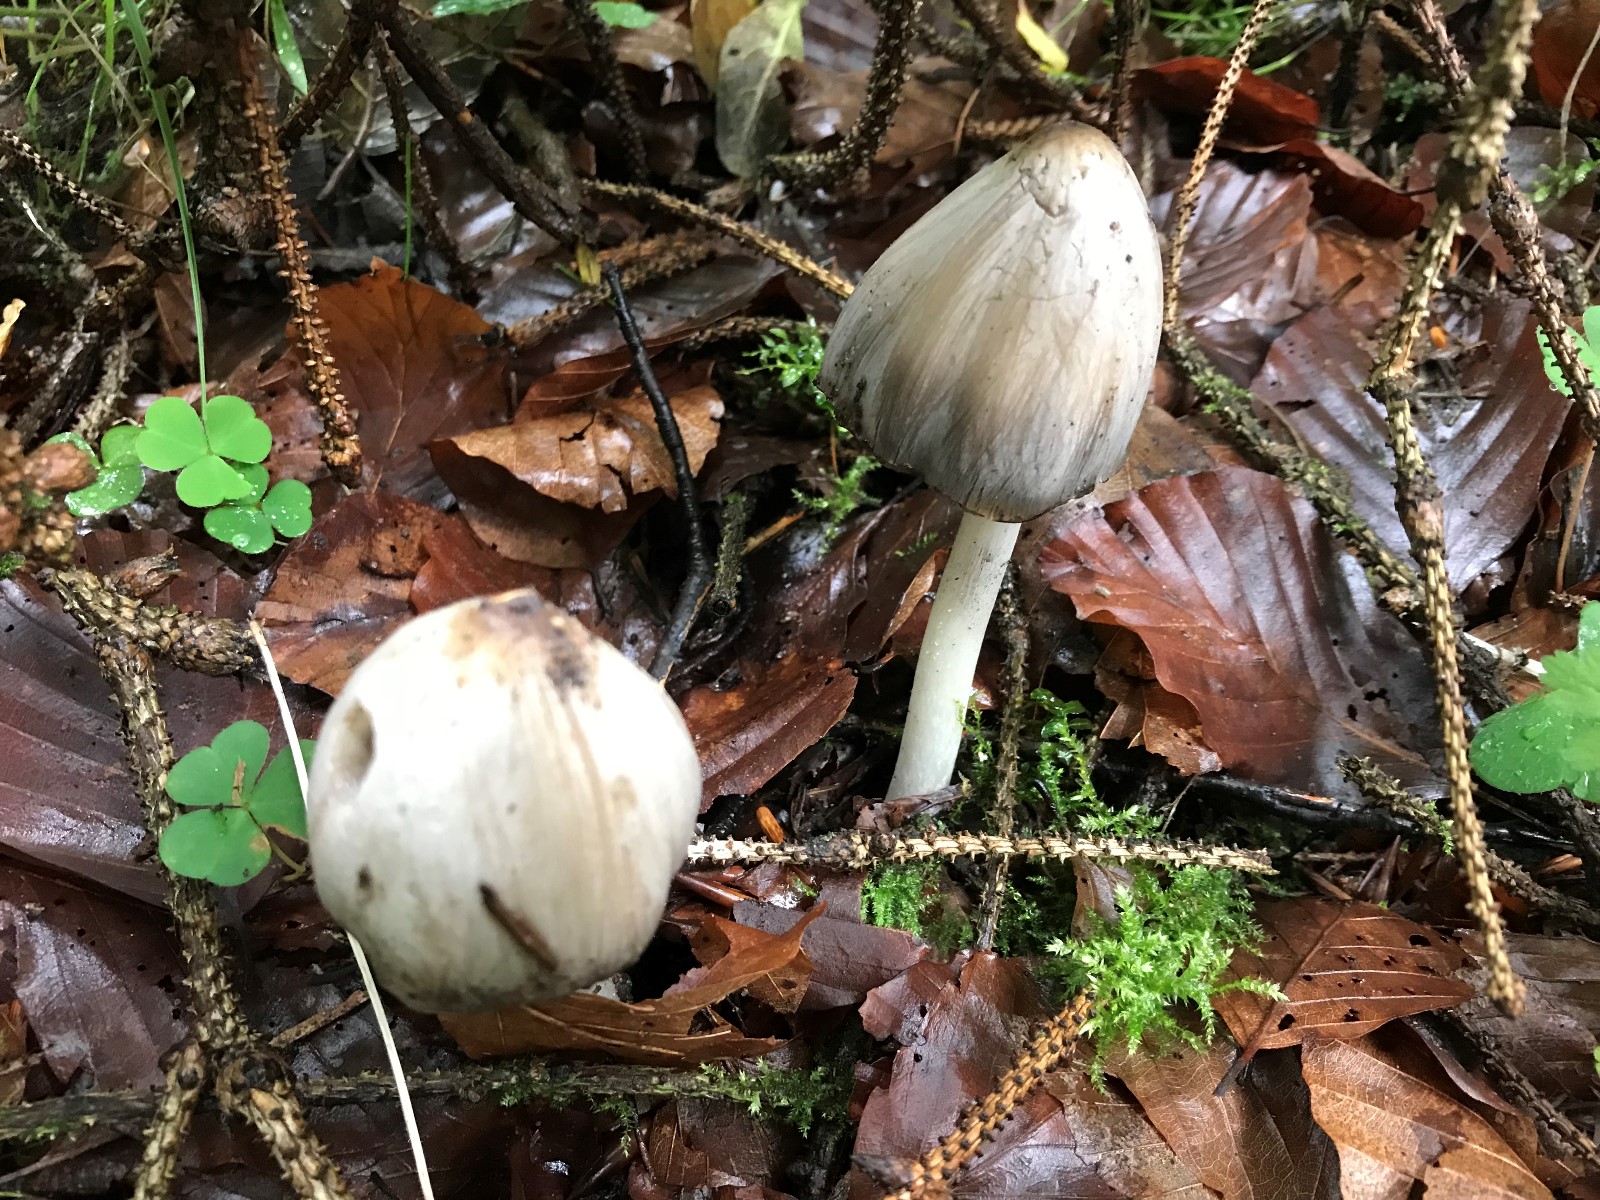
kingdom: Fungi
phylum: Basidiomycota
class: Agaricomycetes
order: Agaricales
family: Psathyrellaceae
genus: Coprinopsis
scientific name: Coprinopsis atramentaria
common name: almindelig blækhat
